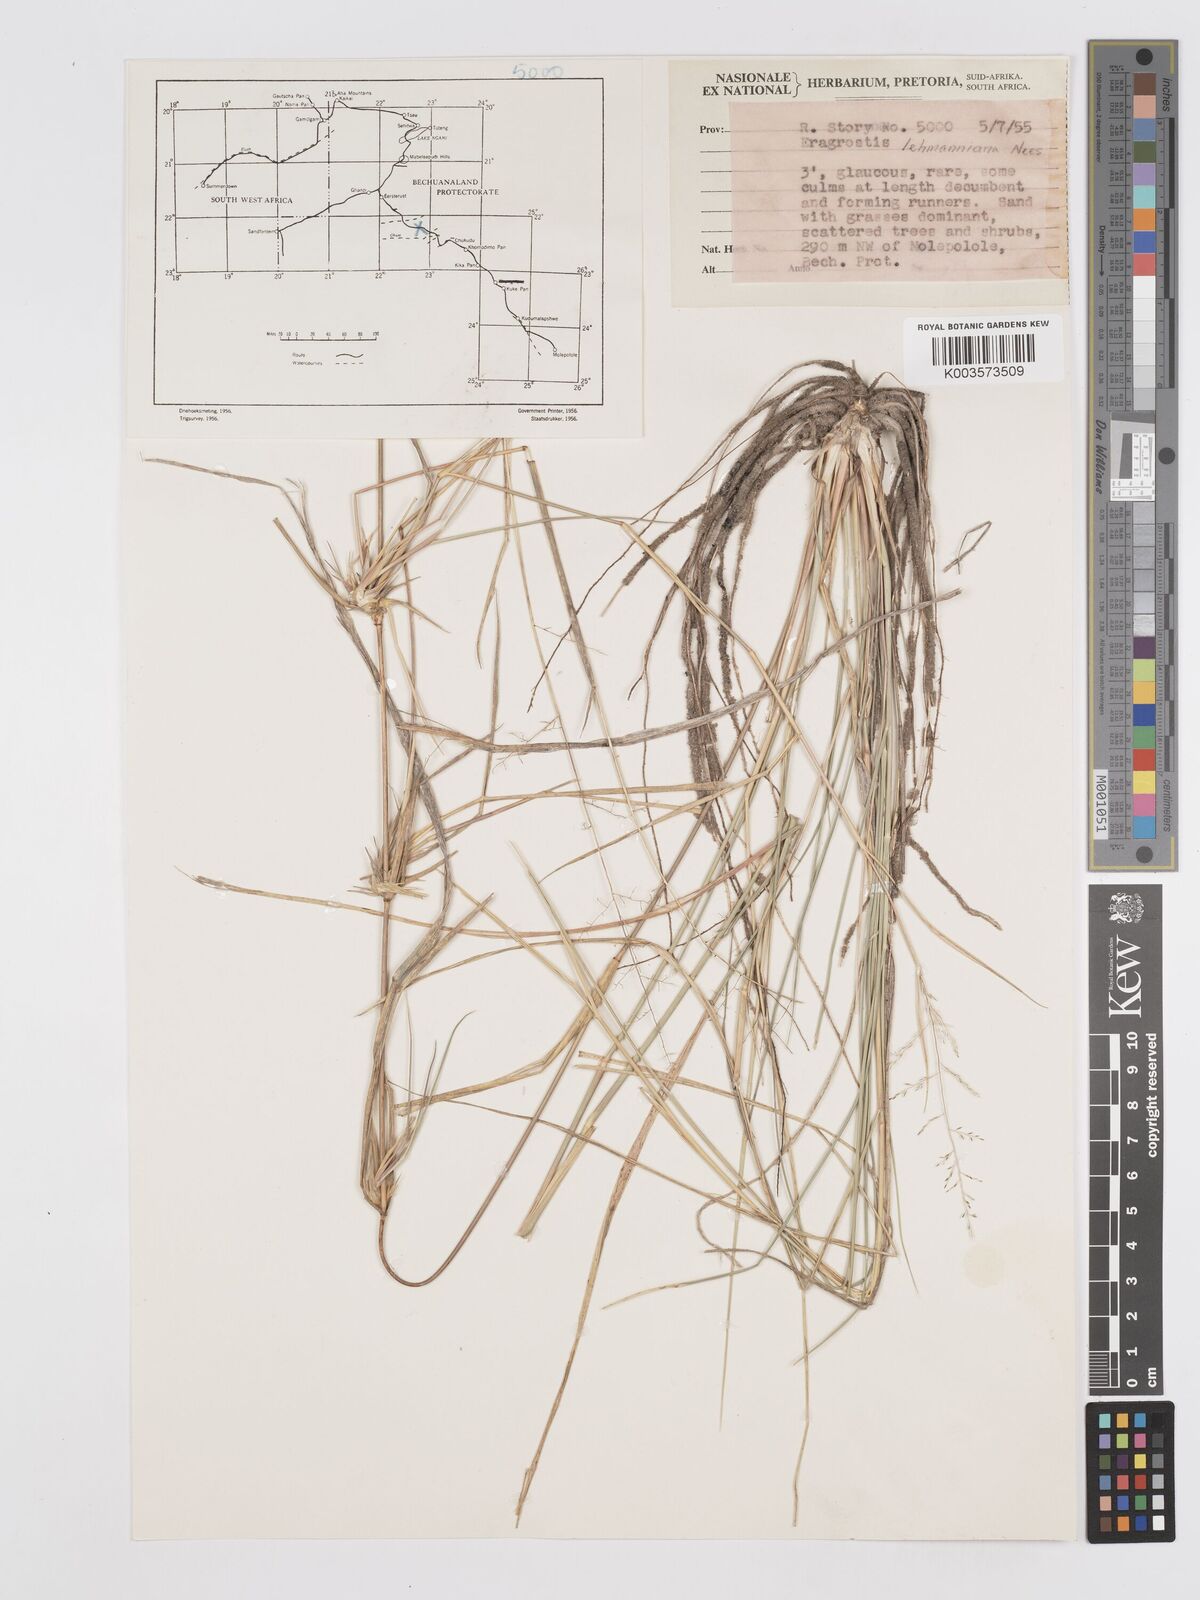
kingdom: Plantae
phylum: Tracheophyta
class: Liliopsida
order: Poales
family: Poaceae
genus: Eragrostis
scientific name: Eragrostis lehmanniana
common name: Lehmann lovegrass
